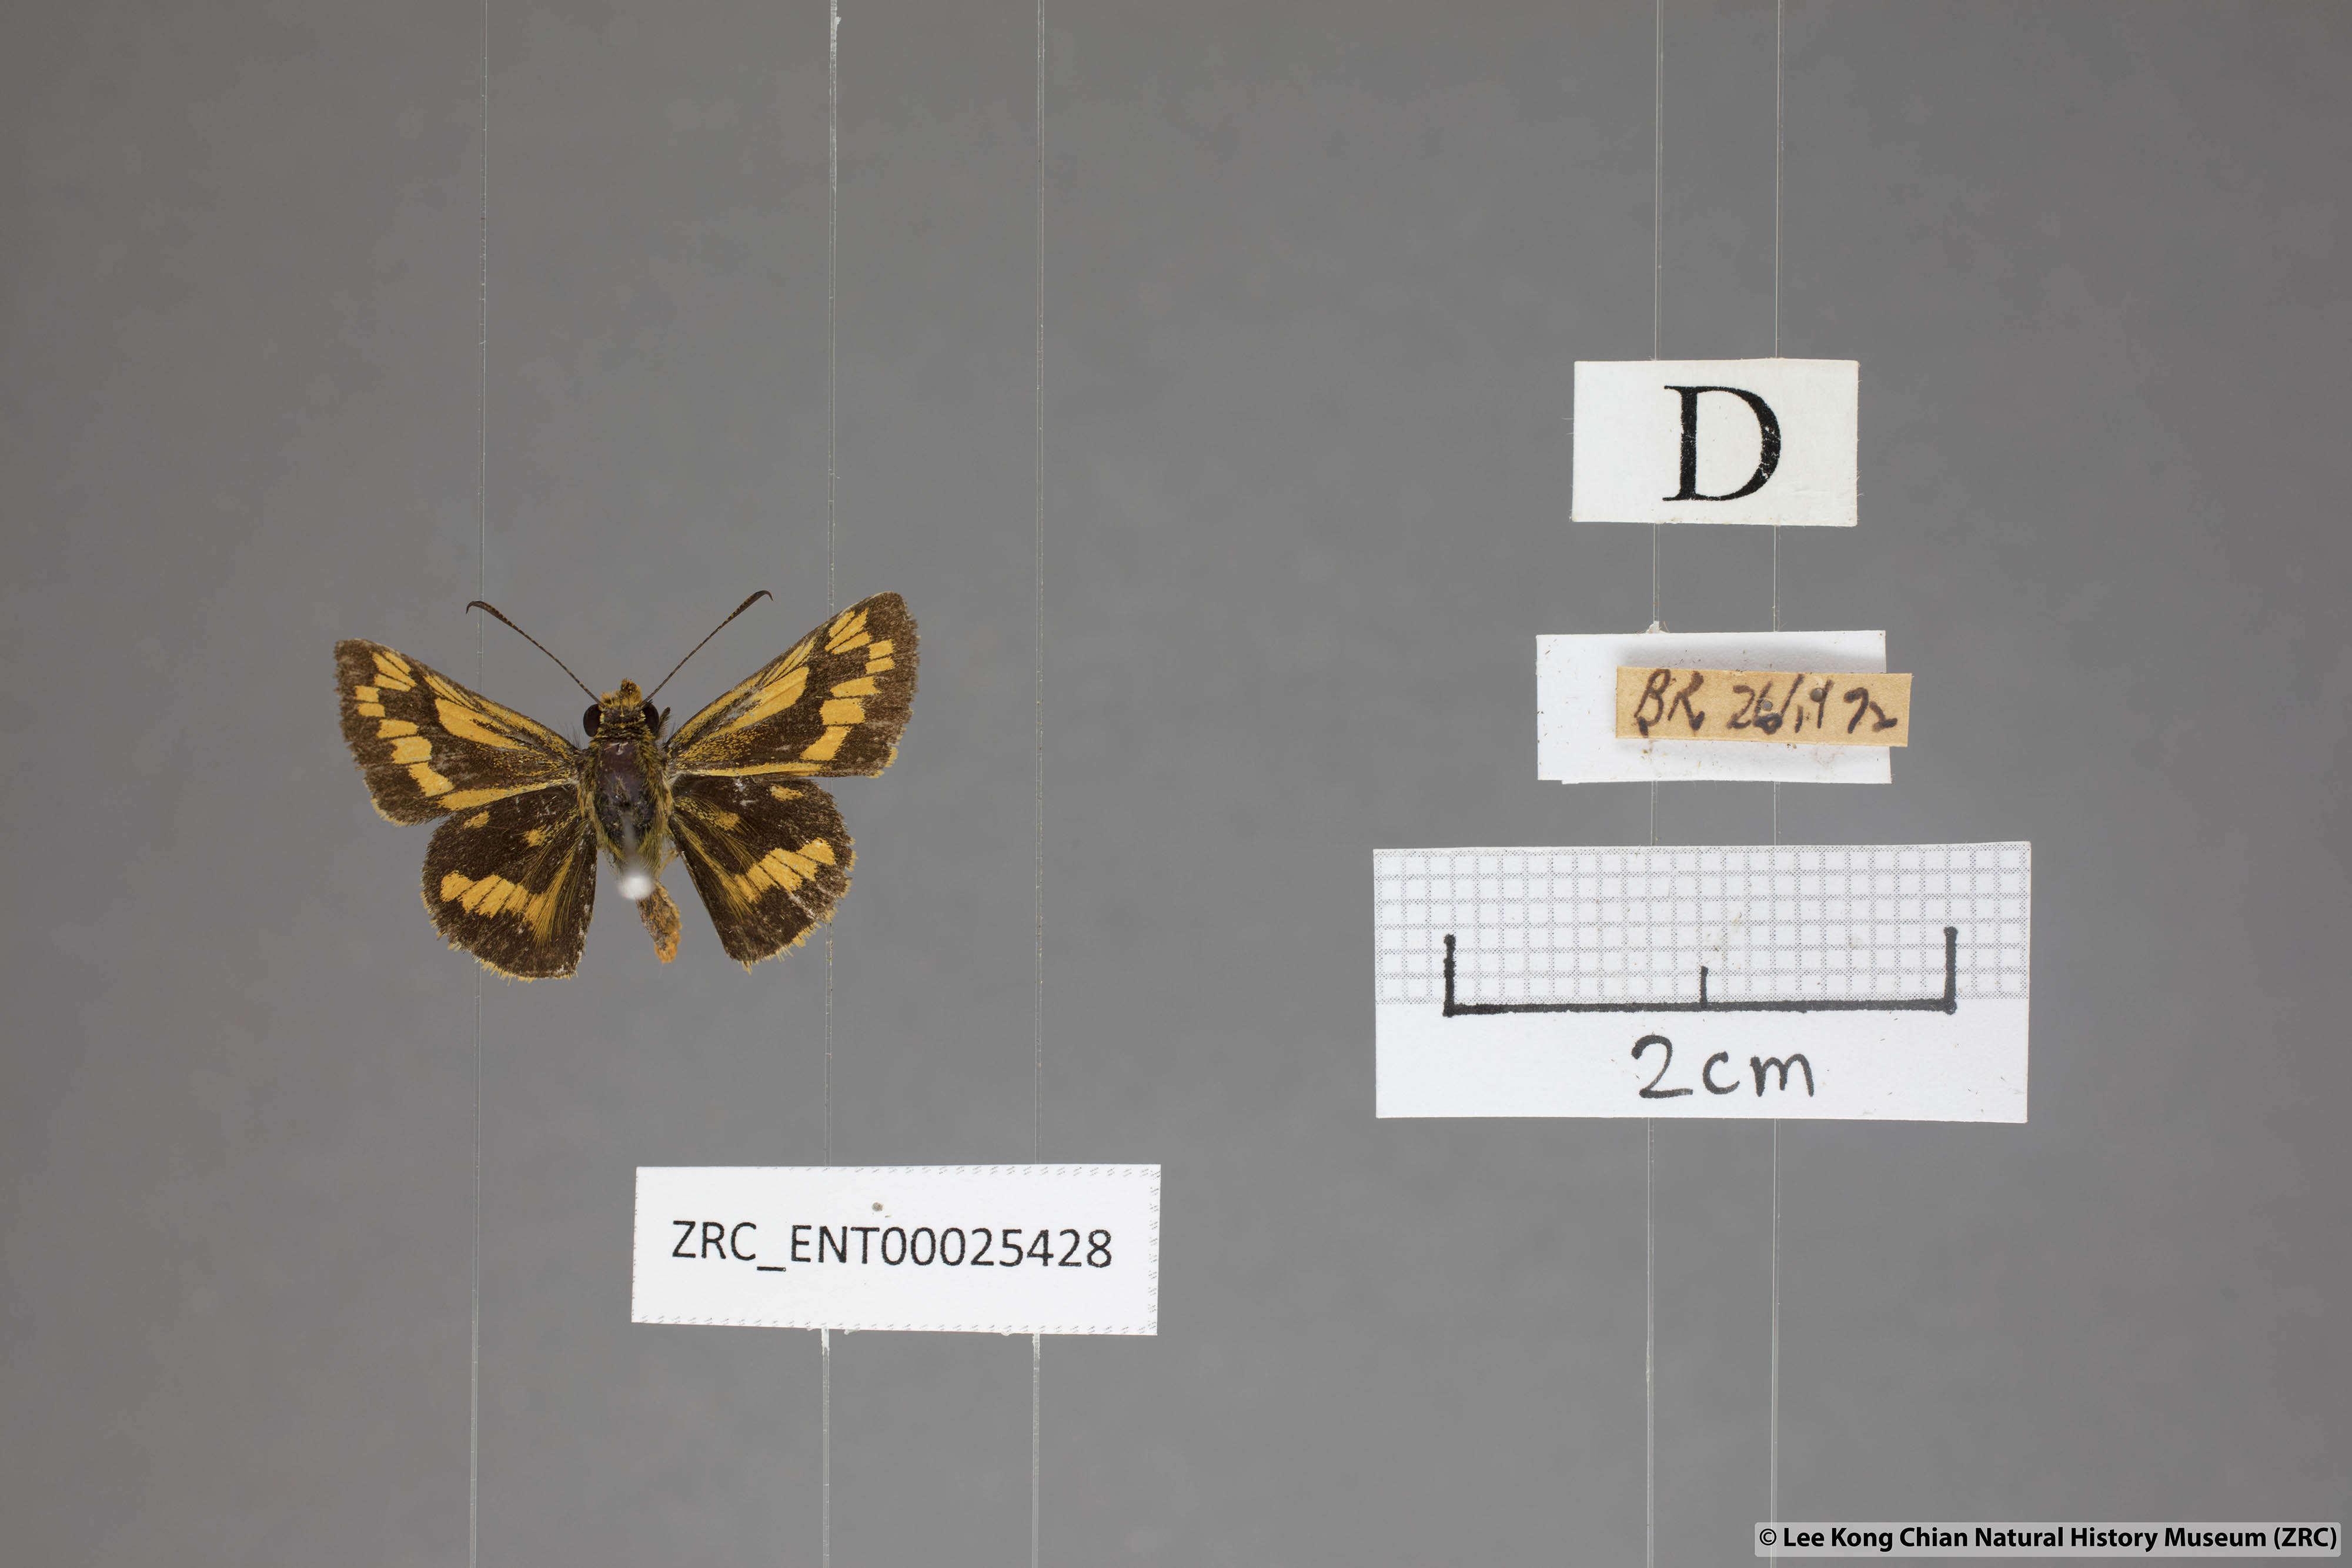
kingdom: Animalia
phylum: Arthropoda
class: Insecta
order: Lepidoptera
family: Hesperiidae
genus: Potanthus
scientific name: Potanthus omaha
